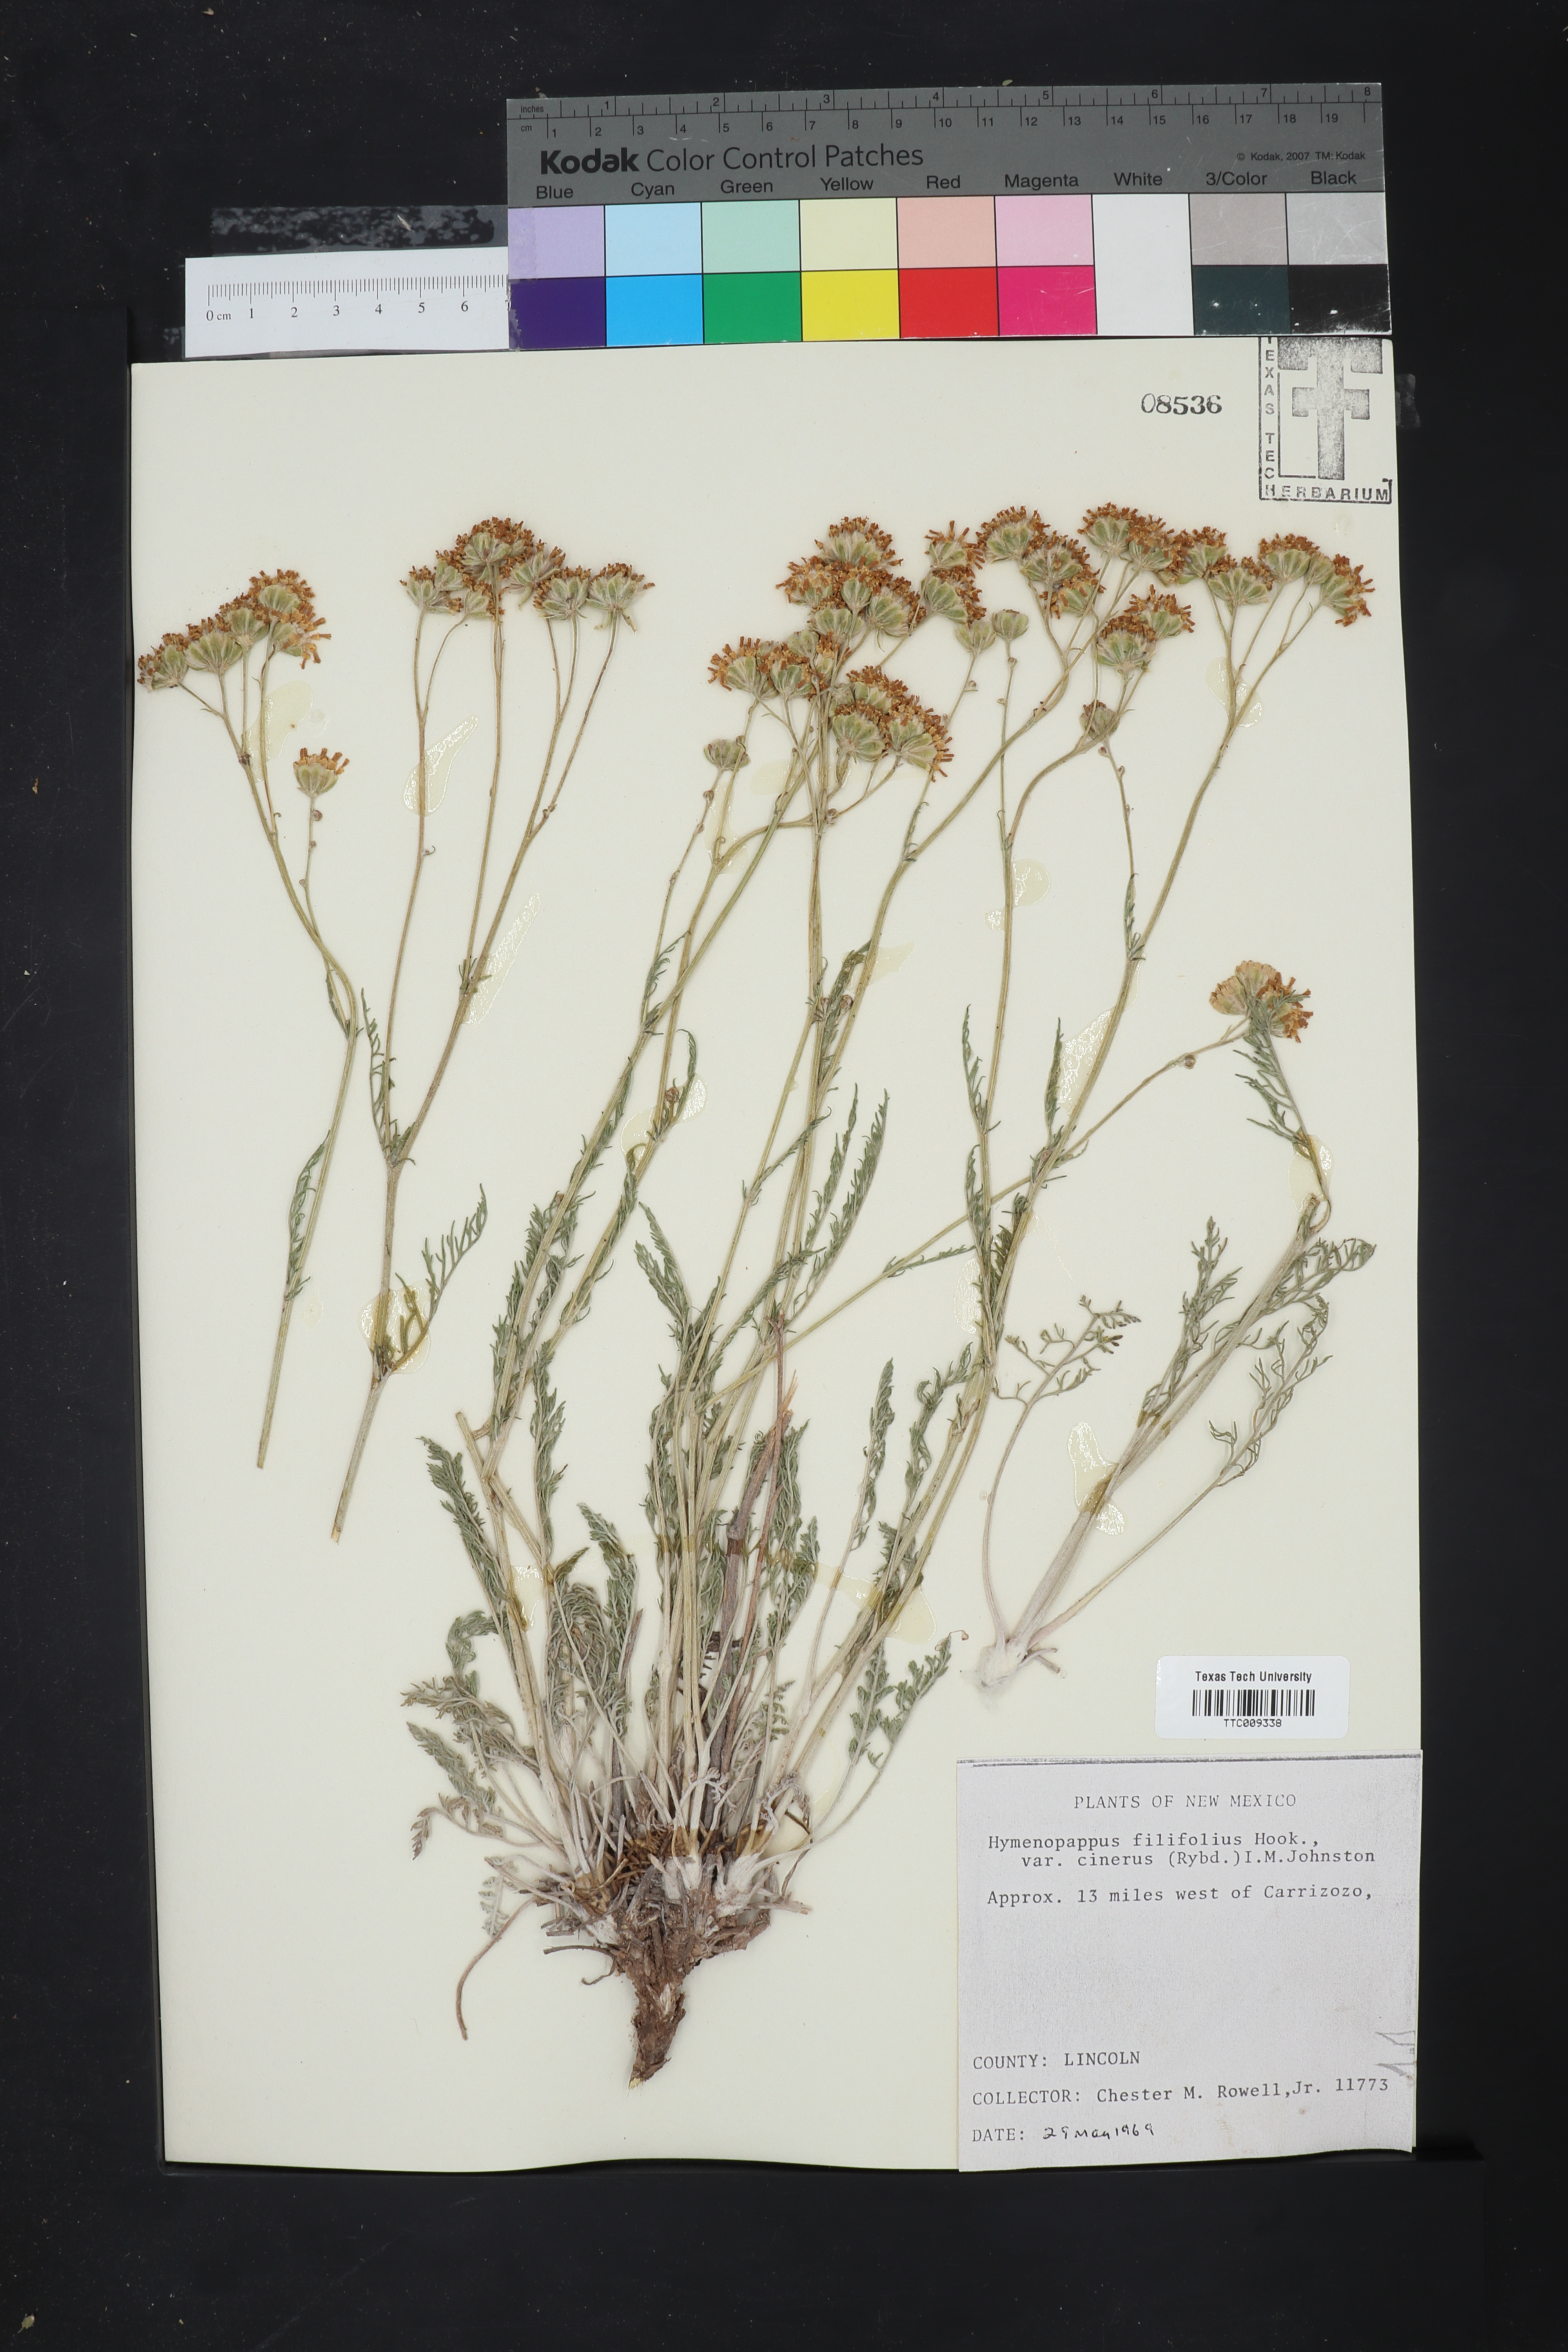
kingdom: Plantae
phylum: Tracheophyta
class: Magnoliopsida
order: Asterales
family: Asteraceae
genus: Hymenopappus
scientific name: Hymenopappus filifolius
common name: Columbia cutleaf
